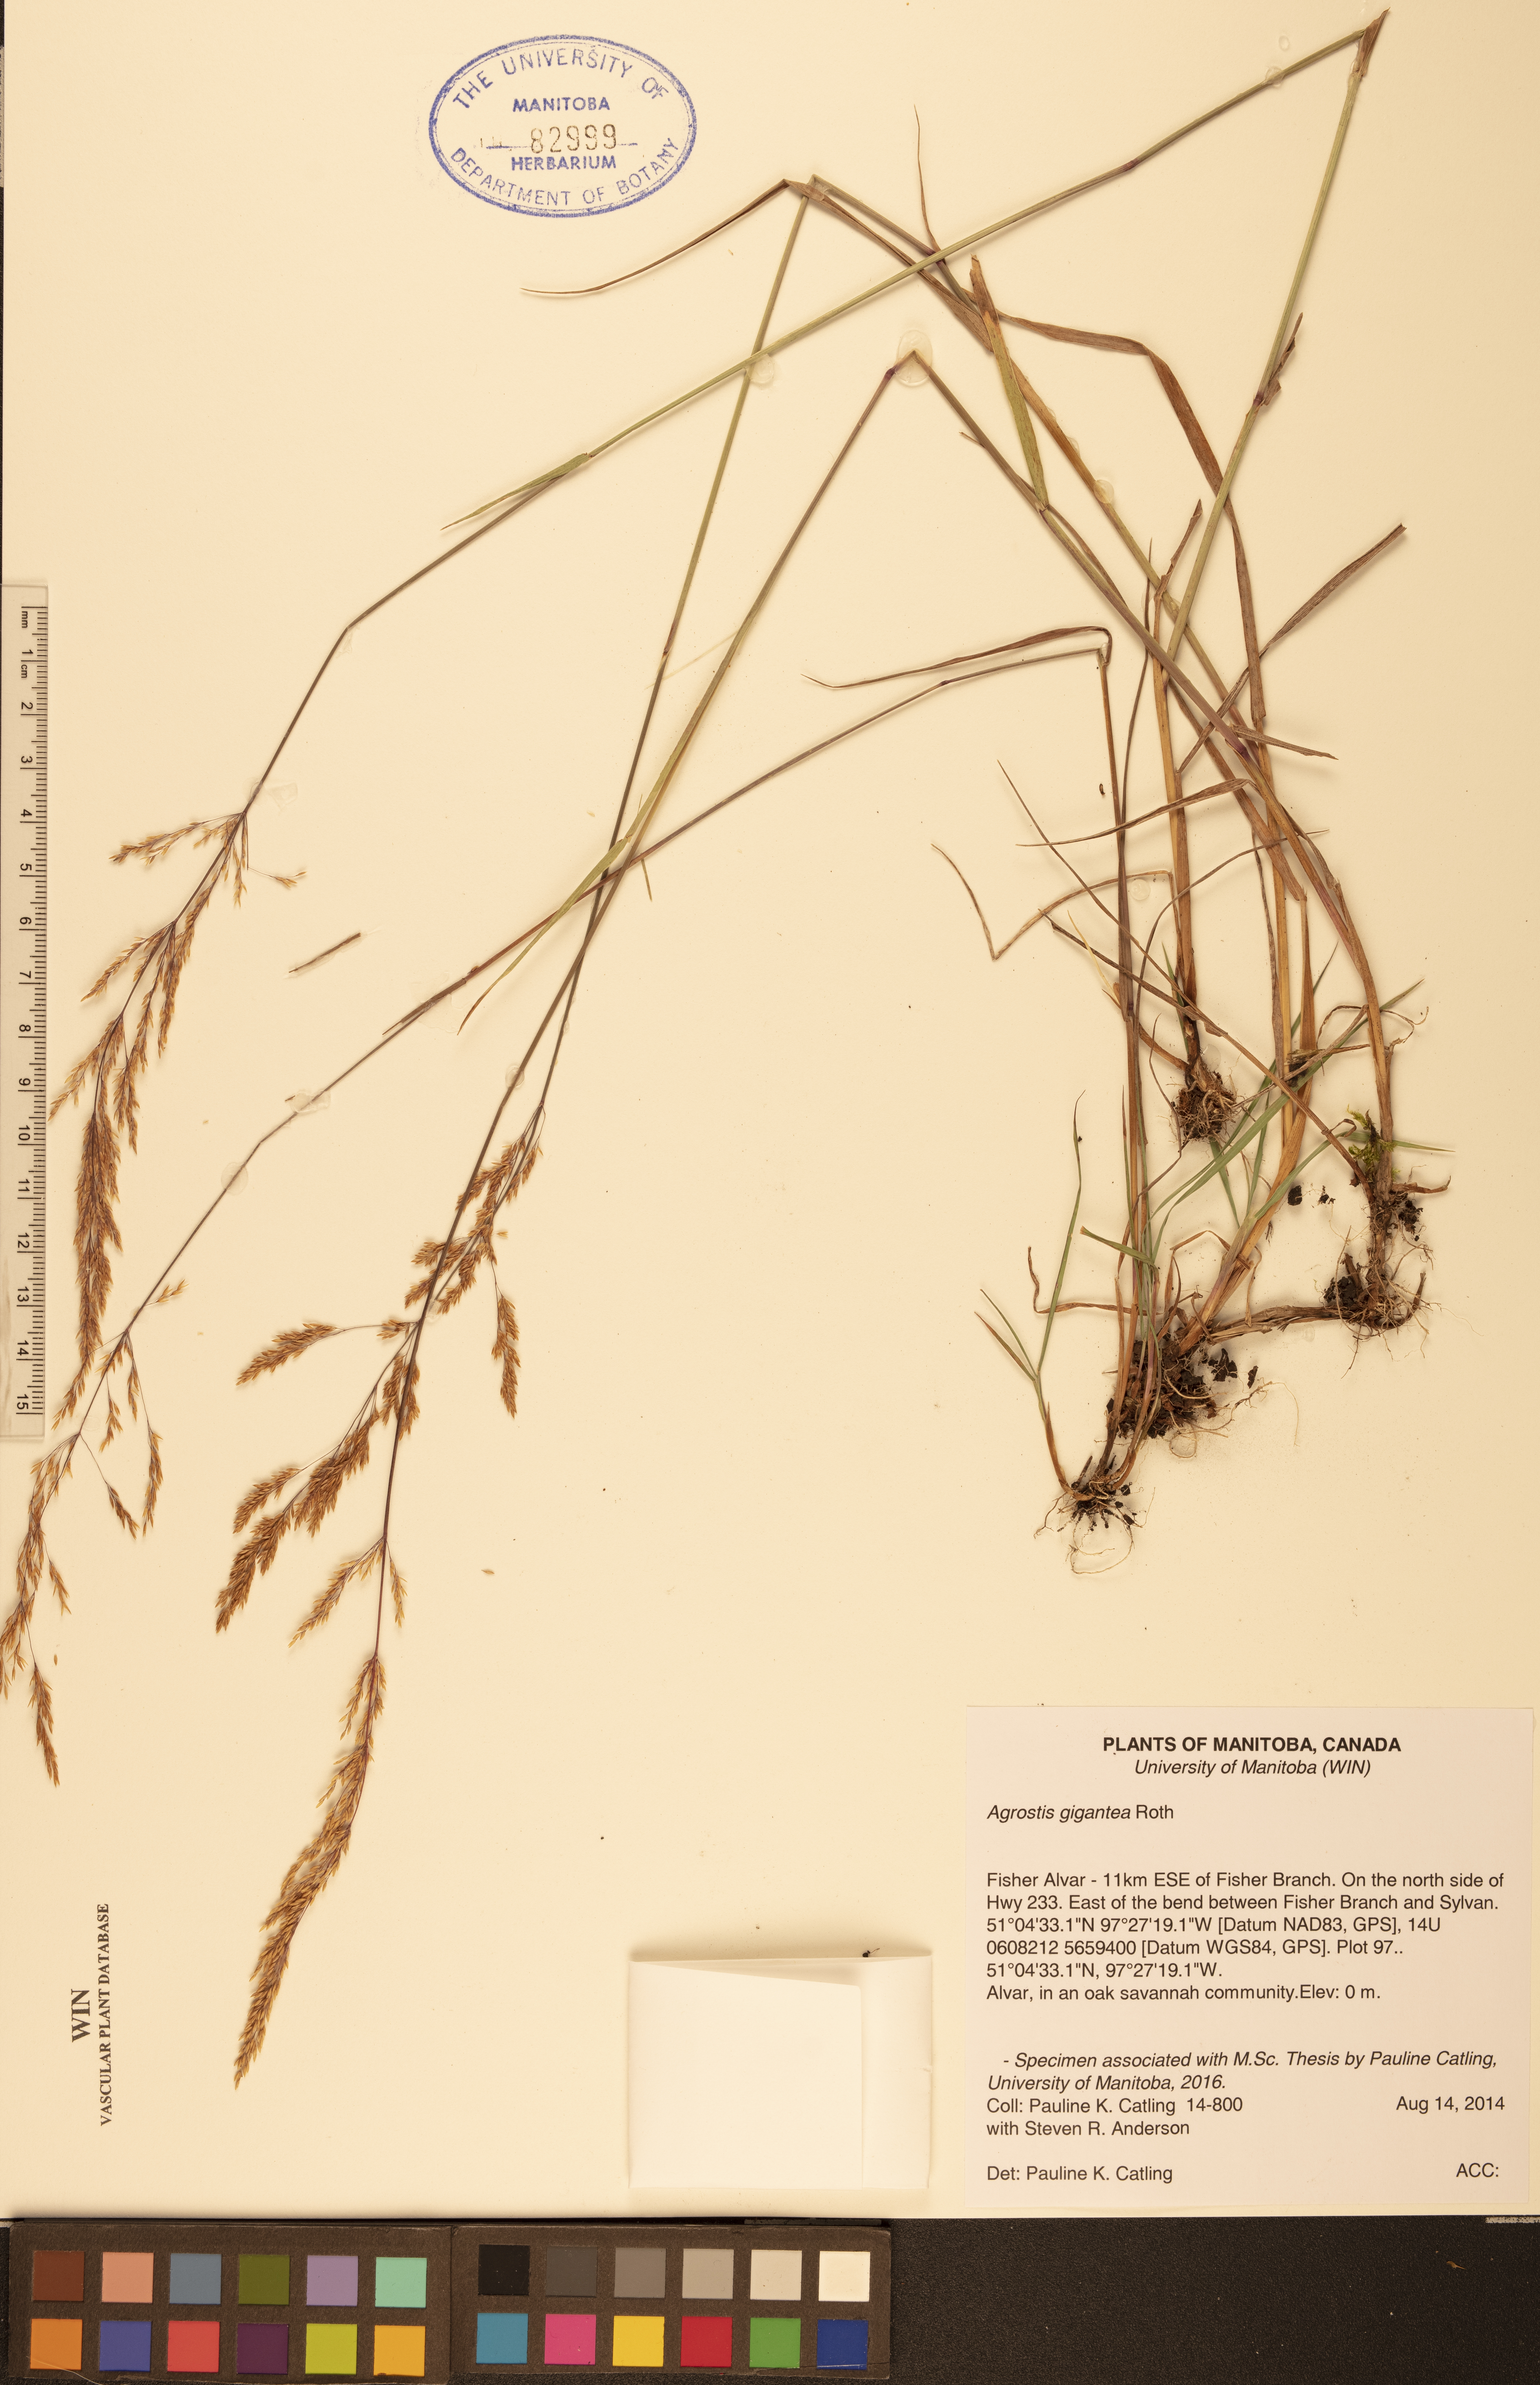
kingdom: Plantae
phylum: Tracheophyta
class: Liliopsida
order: Poales
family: Poaceae
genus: Agrostis
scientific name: Agrostis gigantea
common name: Black bent
